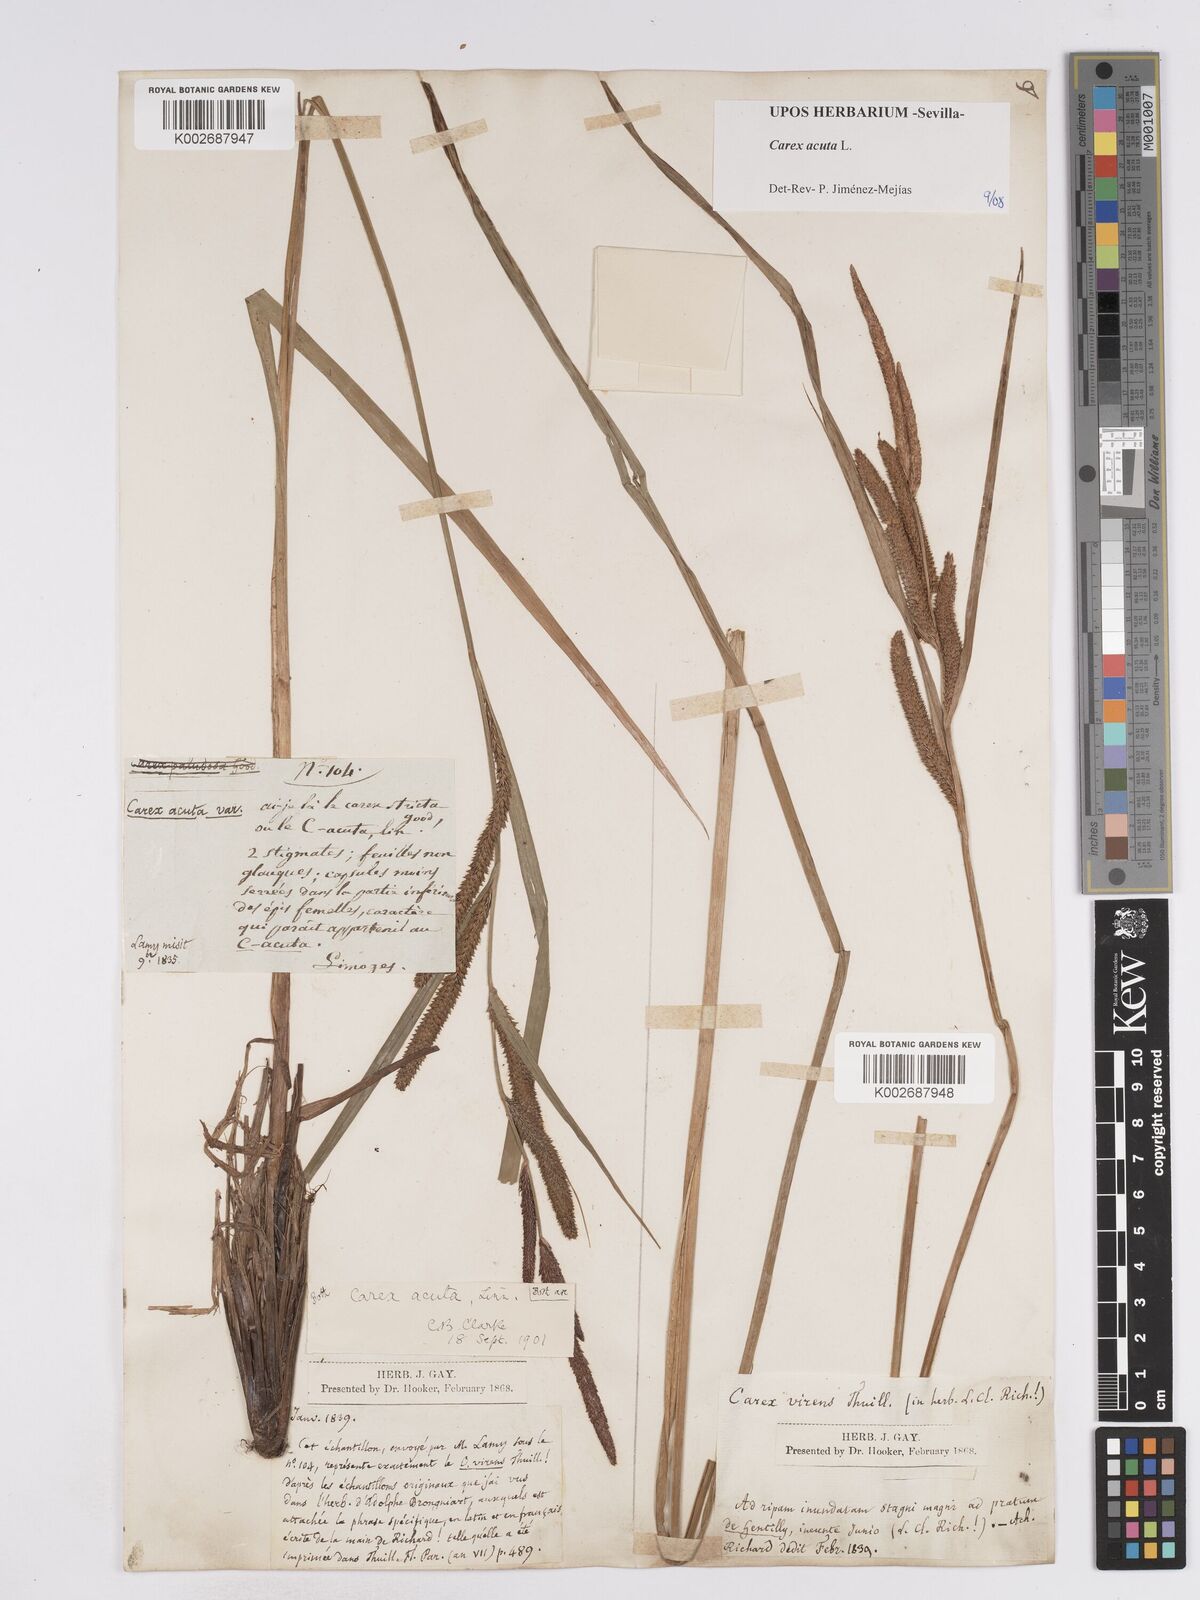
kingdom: Plantae
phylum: Tracheophyta
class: Liliopsida
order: Poales
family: Cyperaceae
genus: Carex
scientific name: Carex acuta
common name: Slender tufted-sedge
